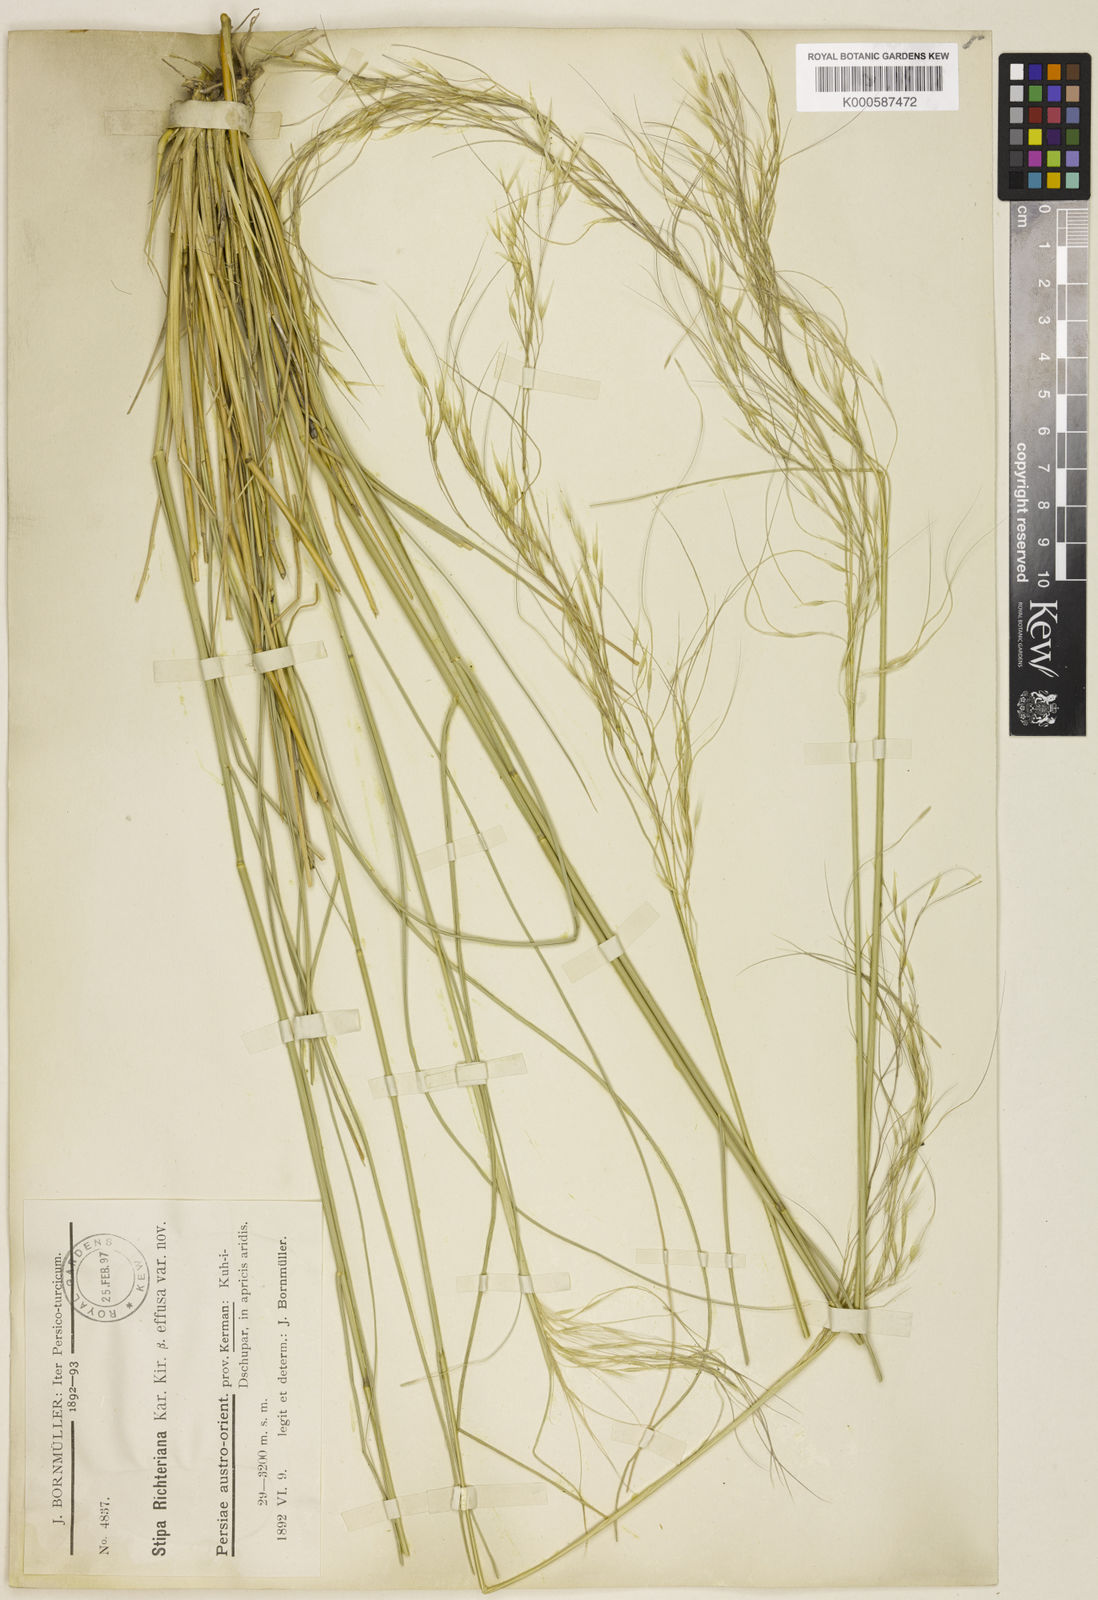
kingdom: Plantae
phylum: Tracheophyta
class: Liliopsida
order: Poales
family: Poaceae
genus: Achnatherum
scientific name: Achnatherum haussknechtii
